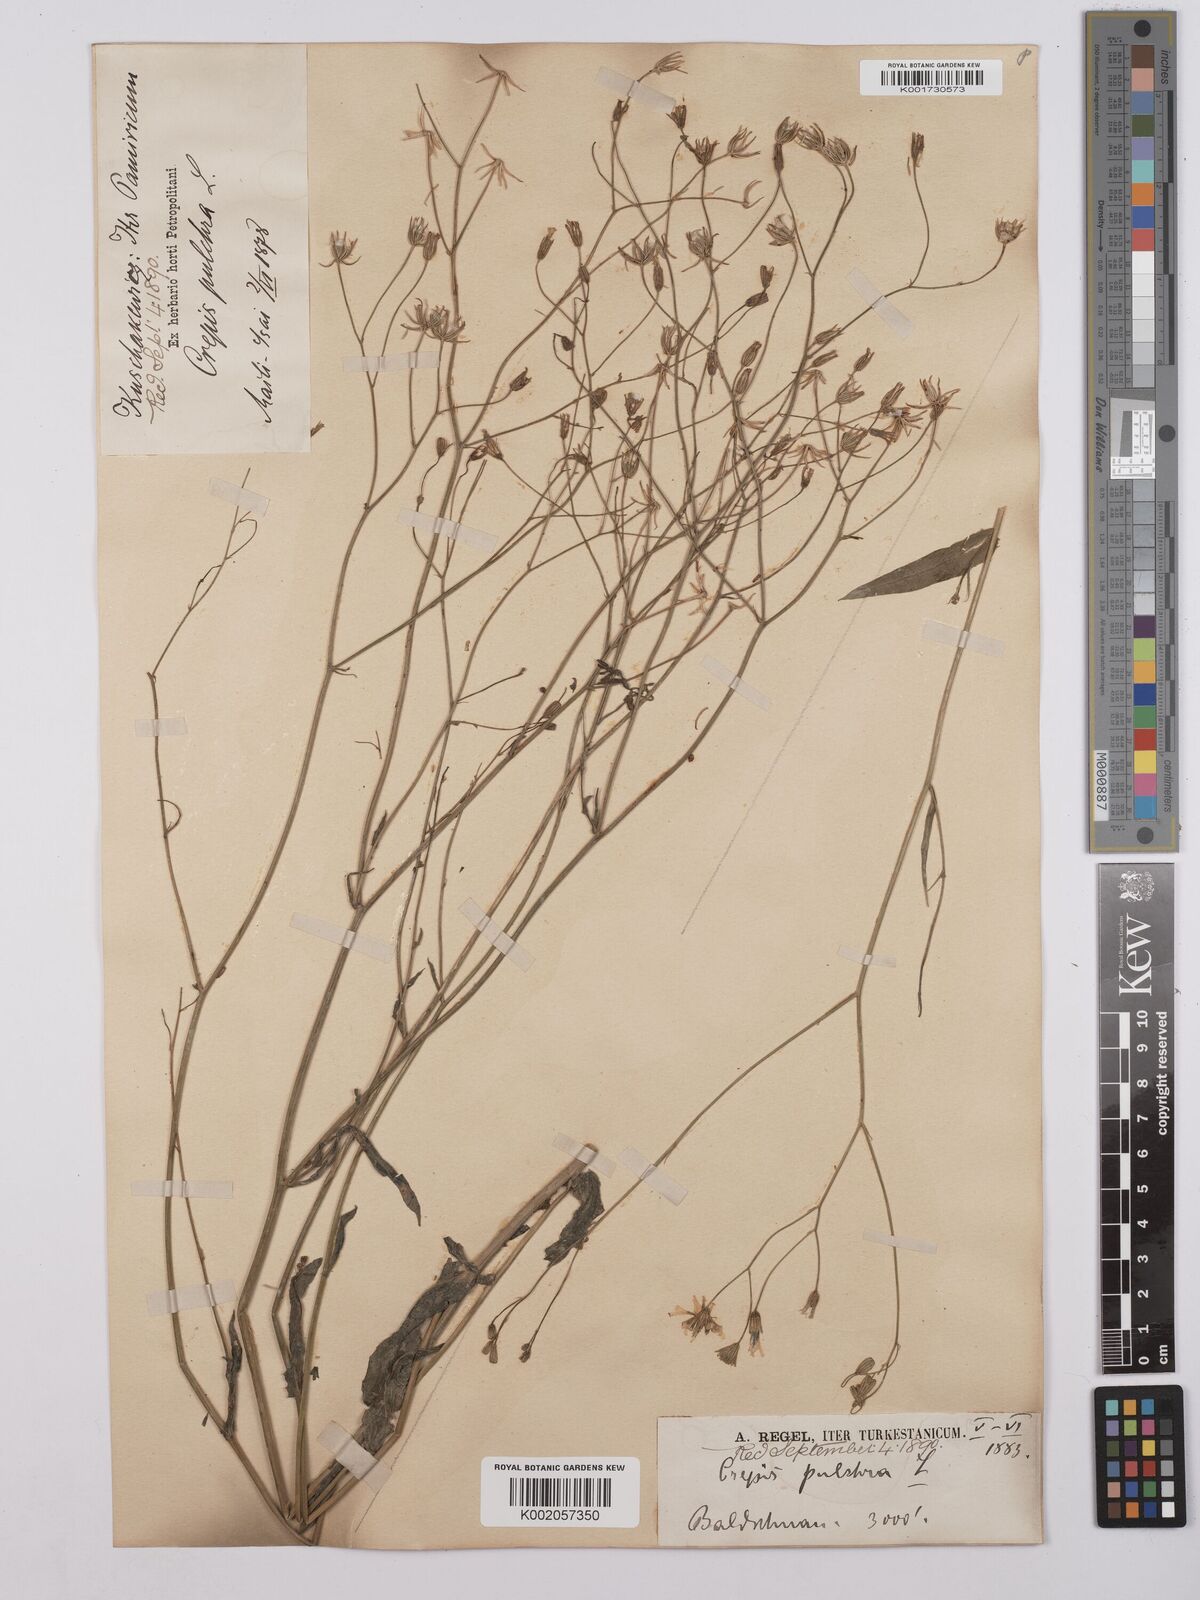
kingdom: Plantae
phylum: Tracheophyta
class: Magnoliopsida
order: Asterales
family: Asteraceae
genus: Crepis
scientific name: Crepis pulchra
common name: Hawk's-beard
